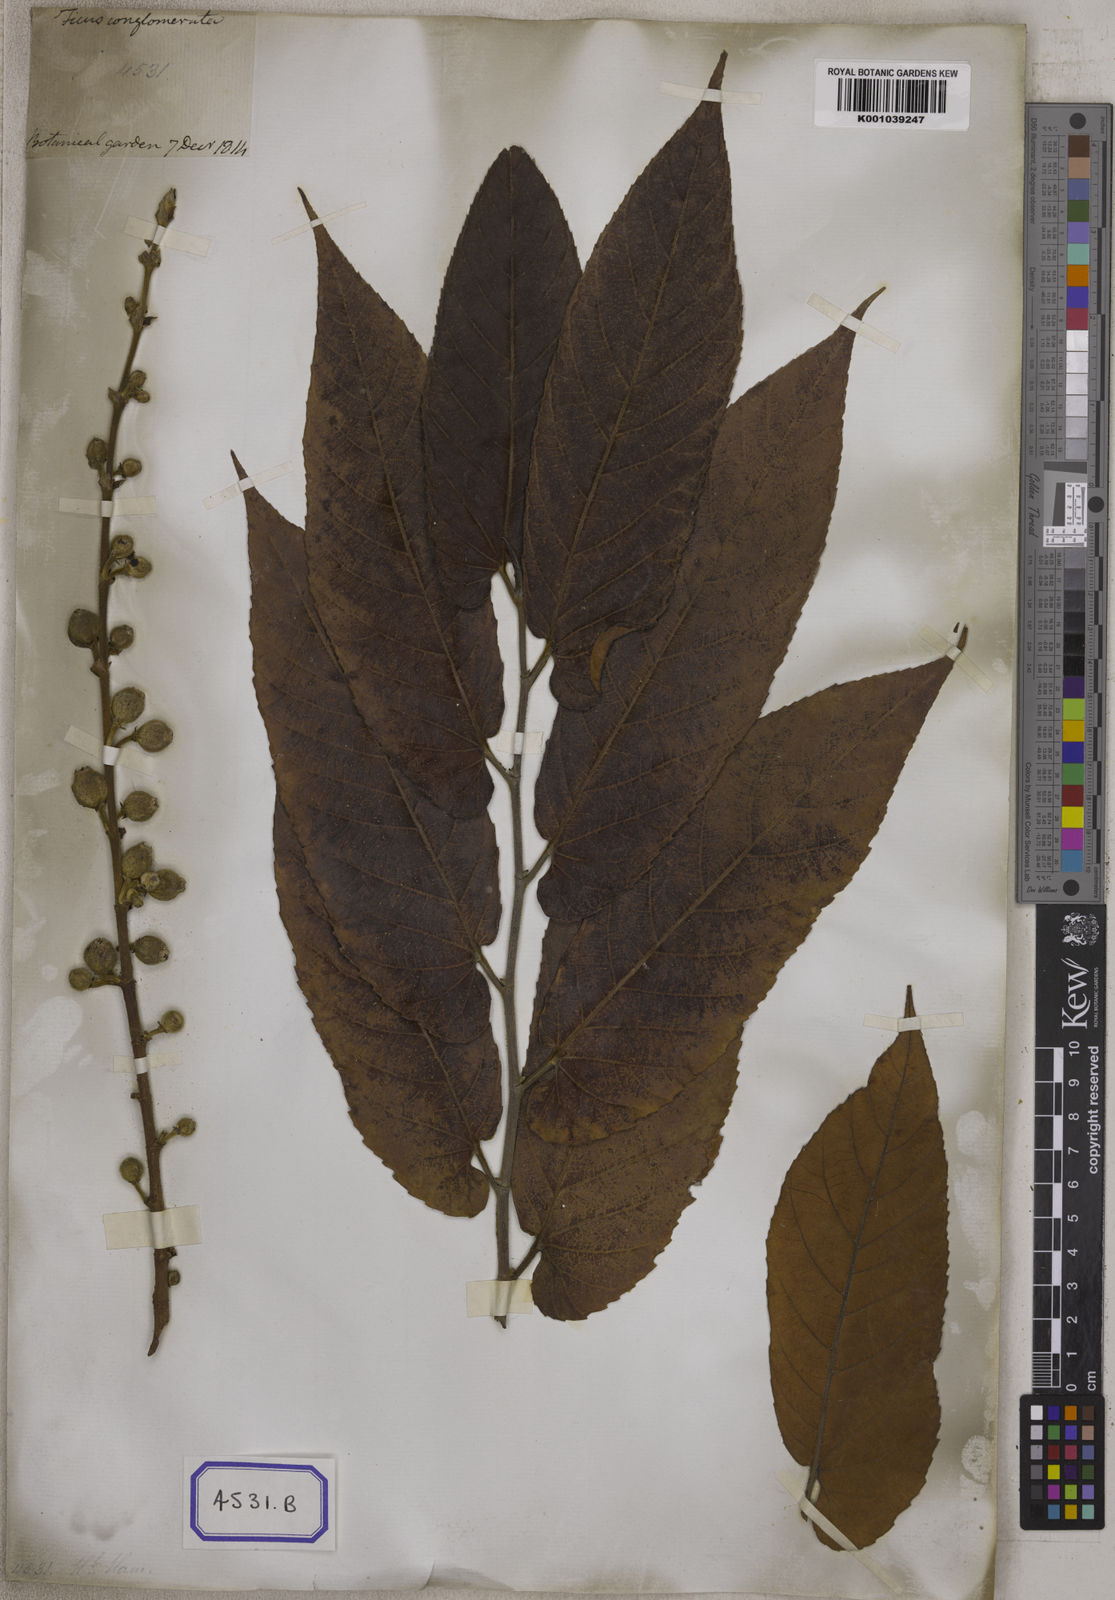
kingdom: Plantae
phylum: Tracheophyta
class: Magnoliopsida
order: Rosales
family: Moraceae
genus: Ficus
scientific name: Ficus semicordata
